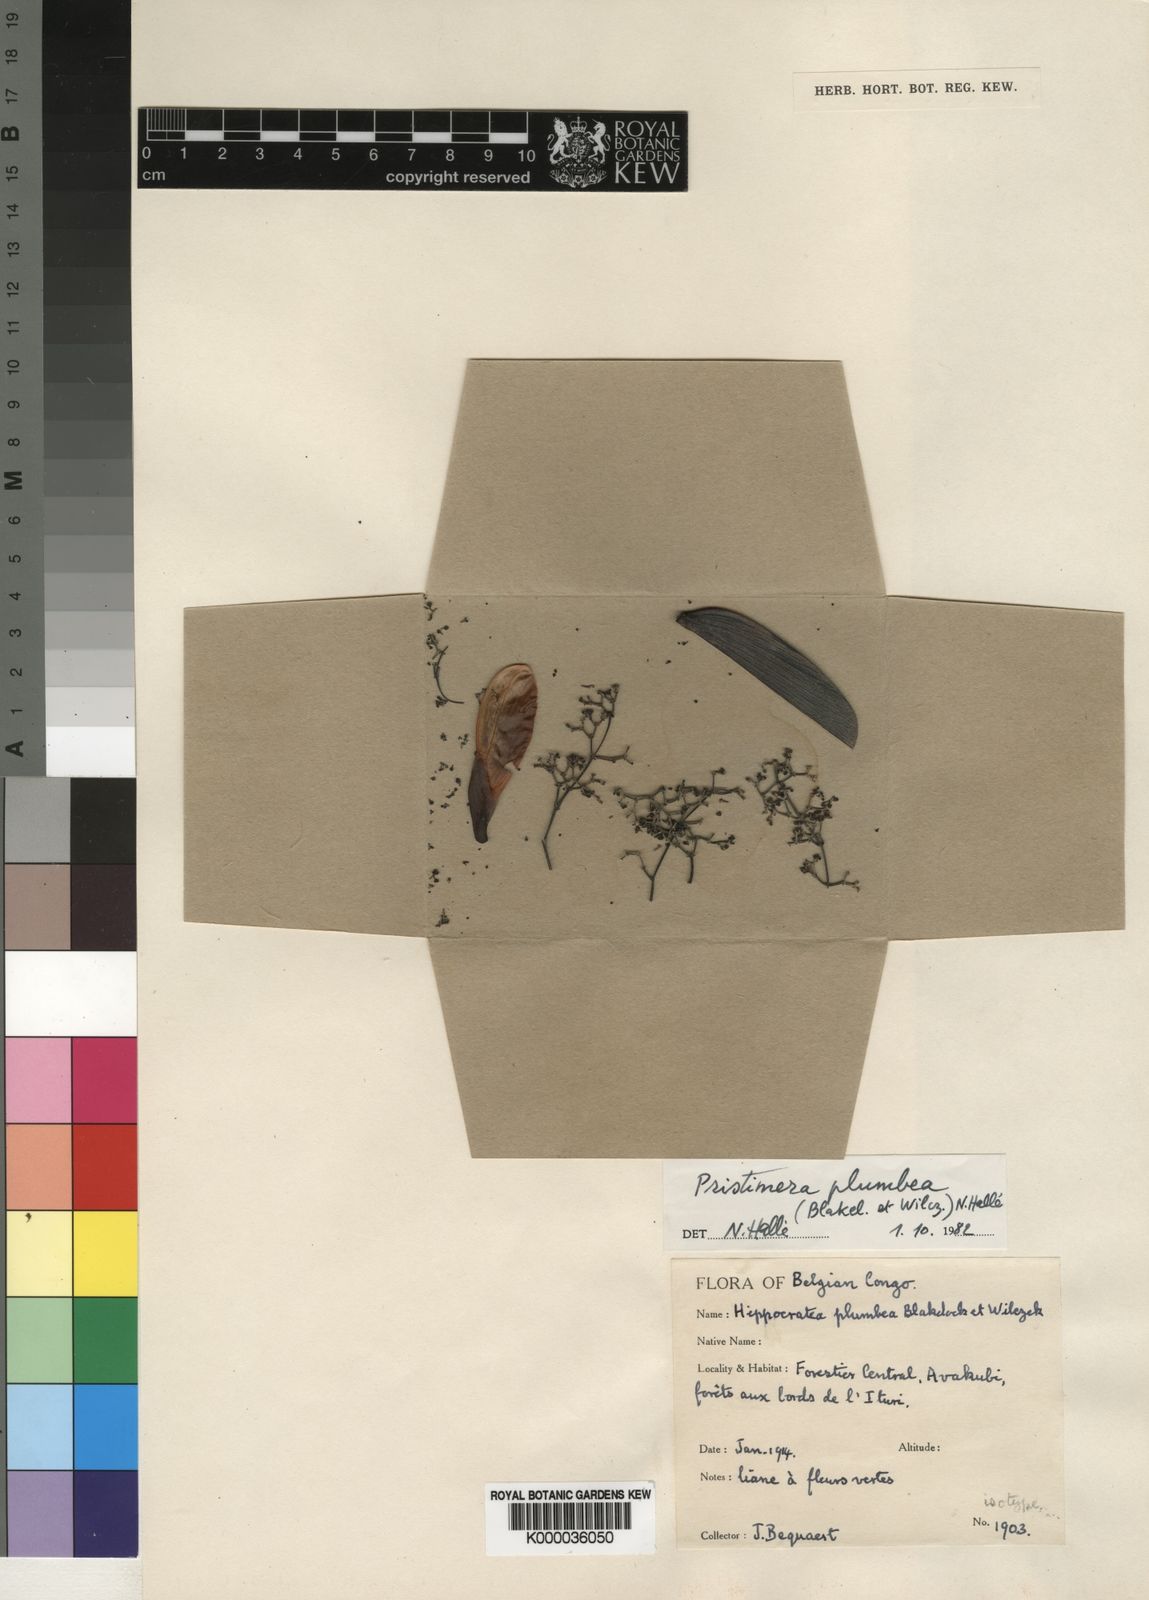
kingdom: Plantae
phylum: Tracheophyta
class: Magnoliopsida
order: Celastrales
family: Celastraceae
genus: Pristimera
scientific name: Pristimera
